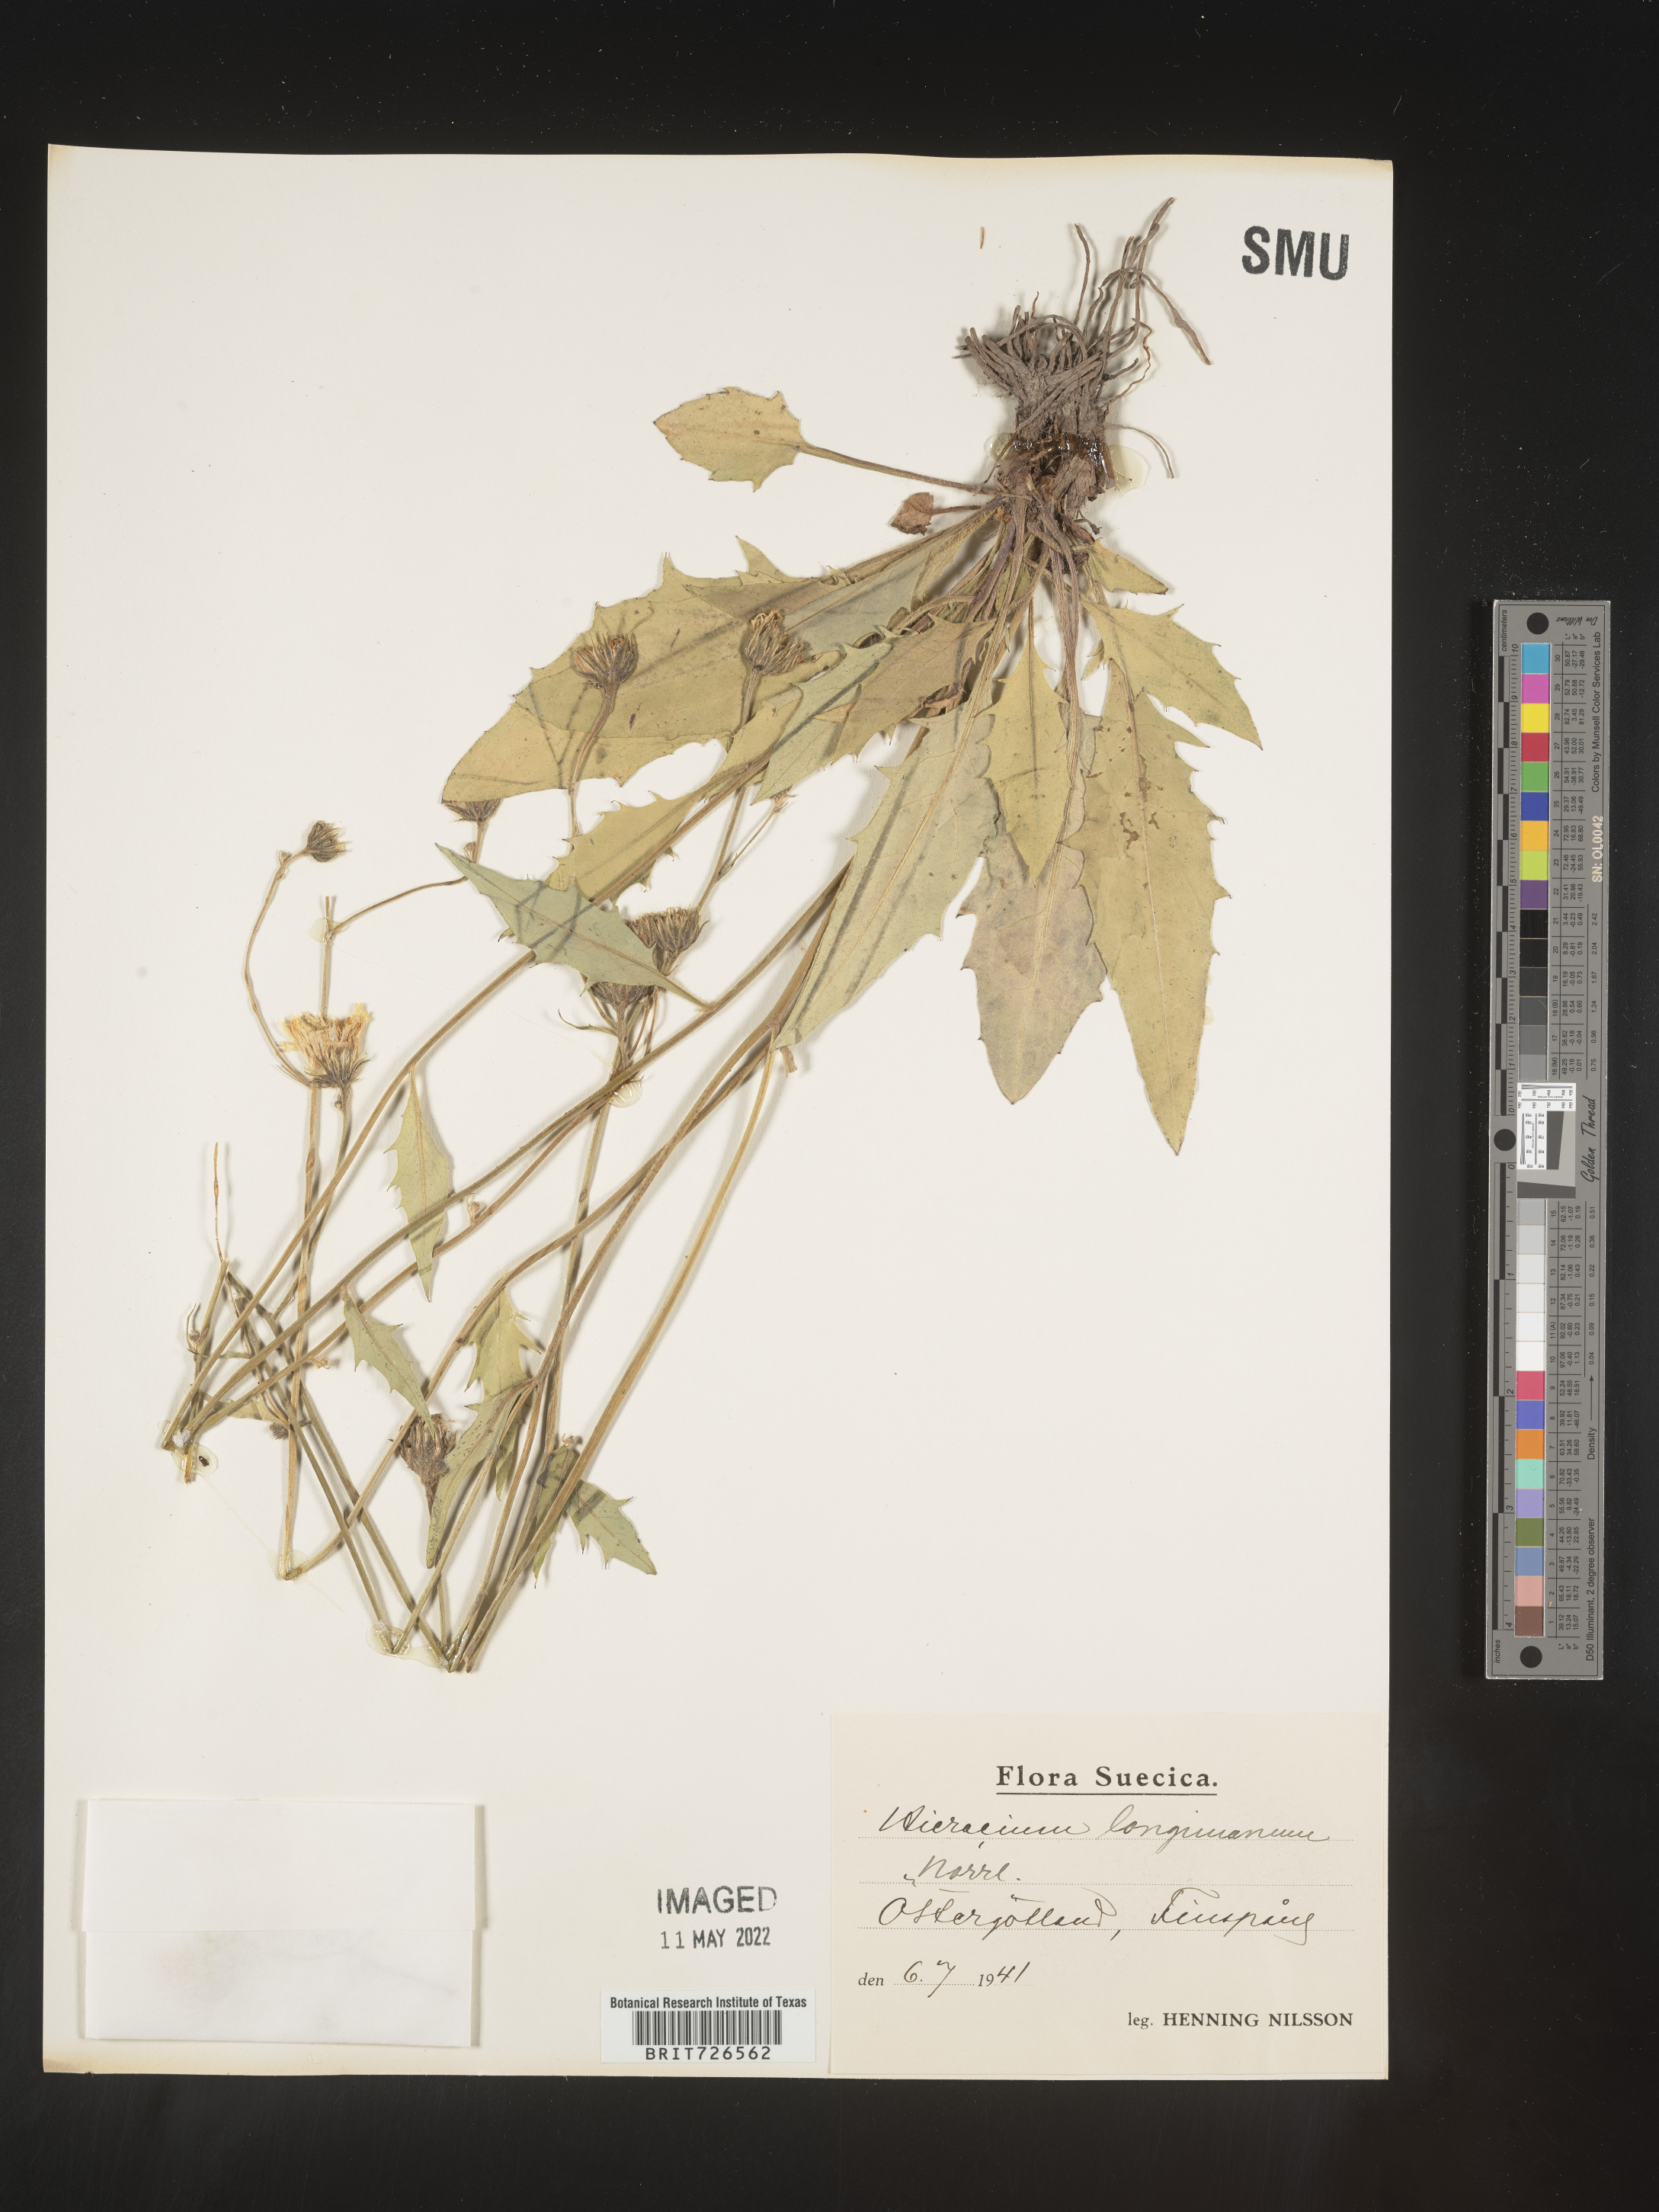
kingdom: Plantae
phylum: Tracheophyta
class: Magnoliopsida
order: Asterales
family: Asteraceae
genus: Hieracium
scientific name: Hieracium
